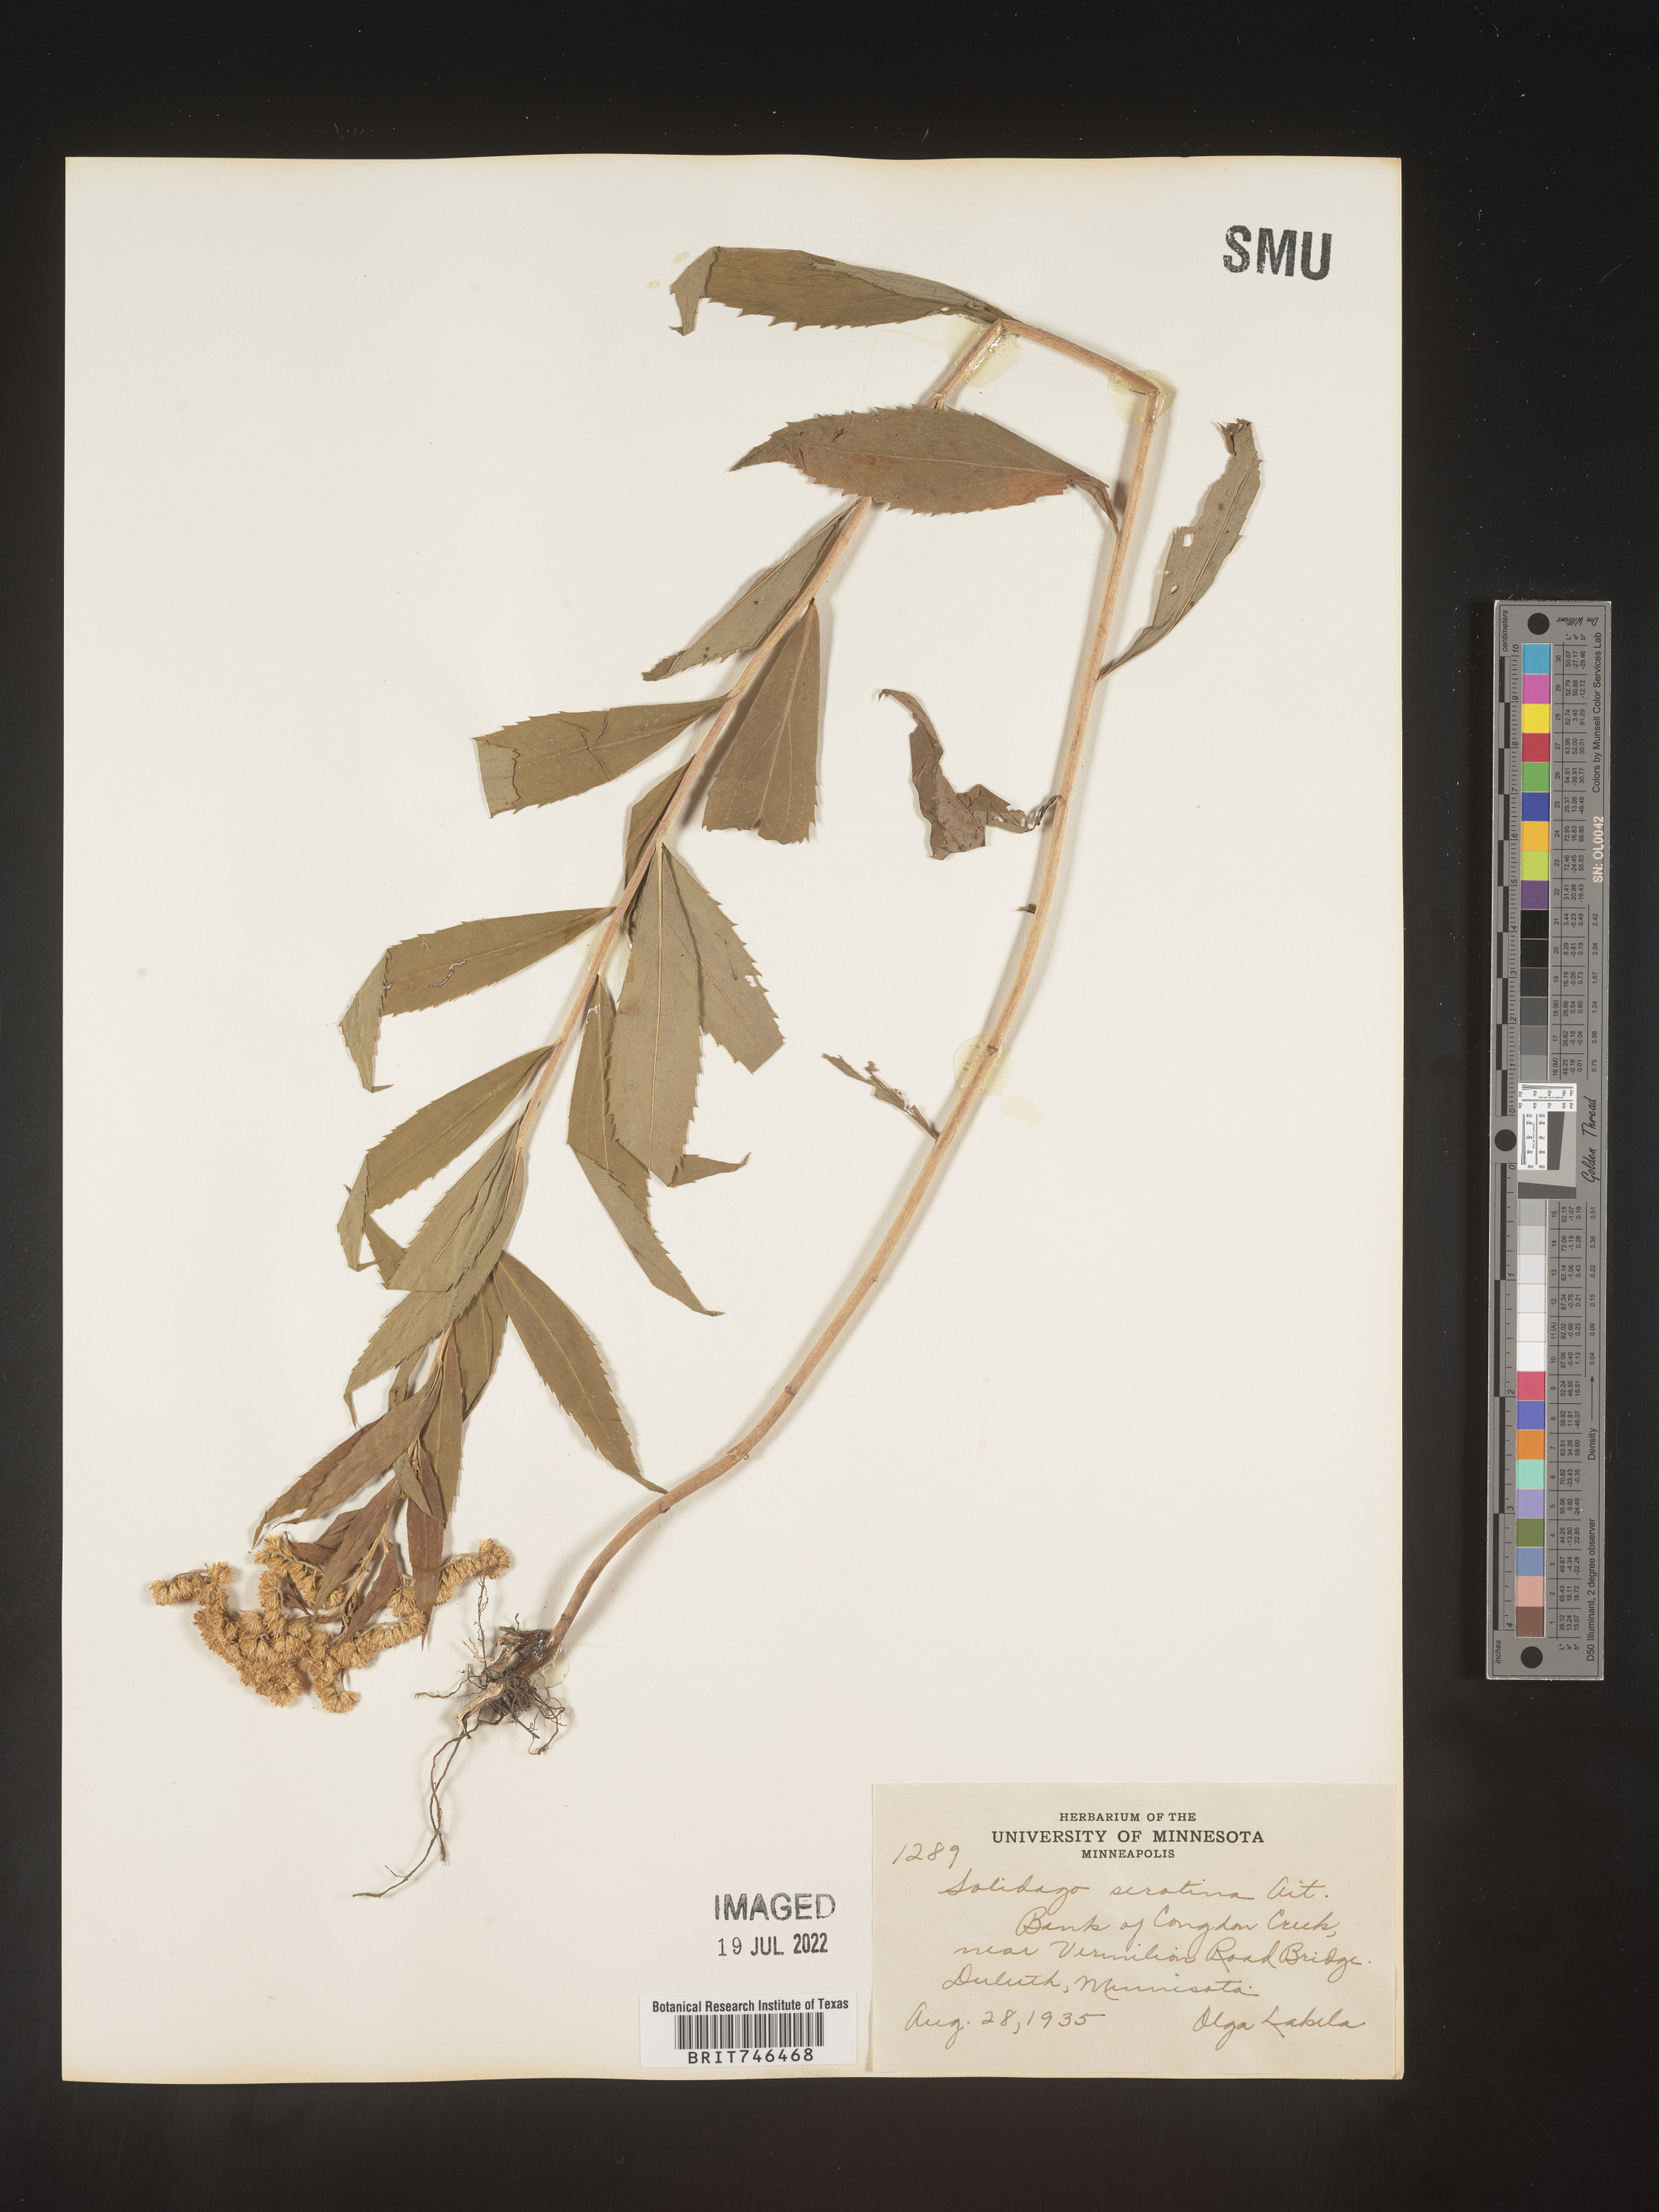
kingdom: Plantae
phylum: Tracheophyta
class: Magnoliopsida
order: Asterales
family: Asteraceae
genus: Solidago
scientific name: Solidago gigantea
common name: Giant goldenrod
